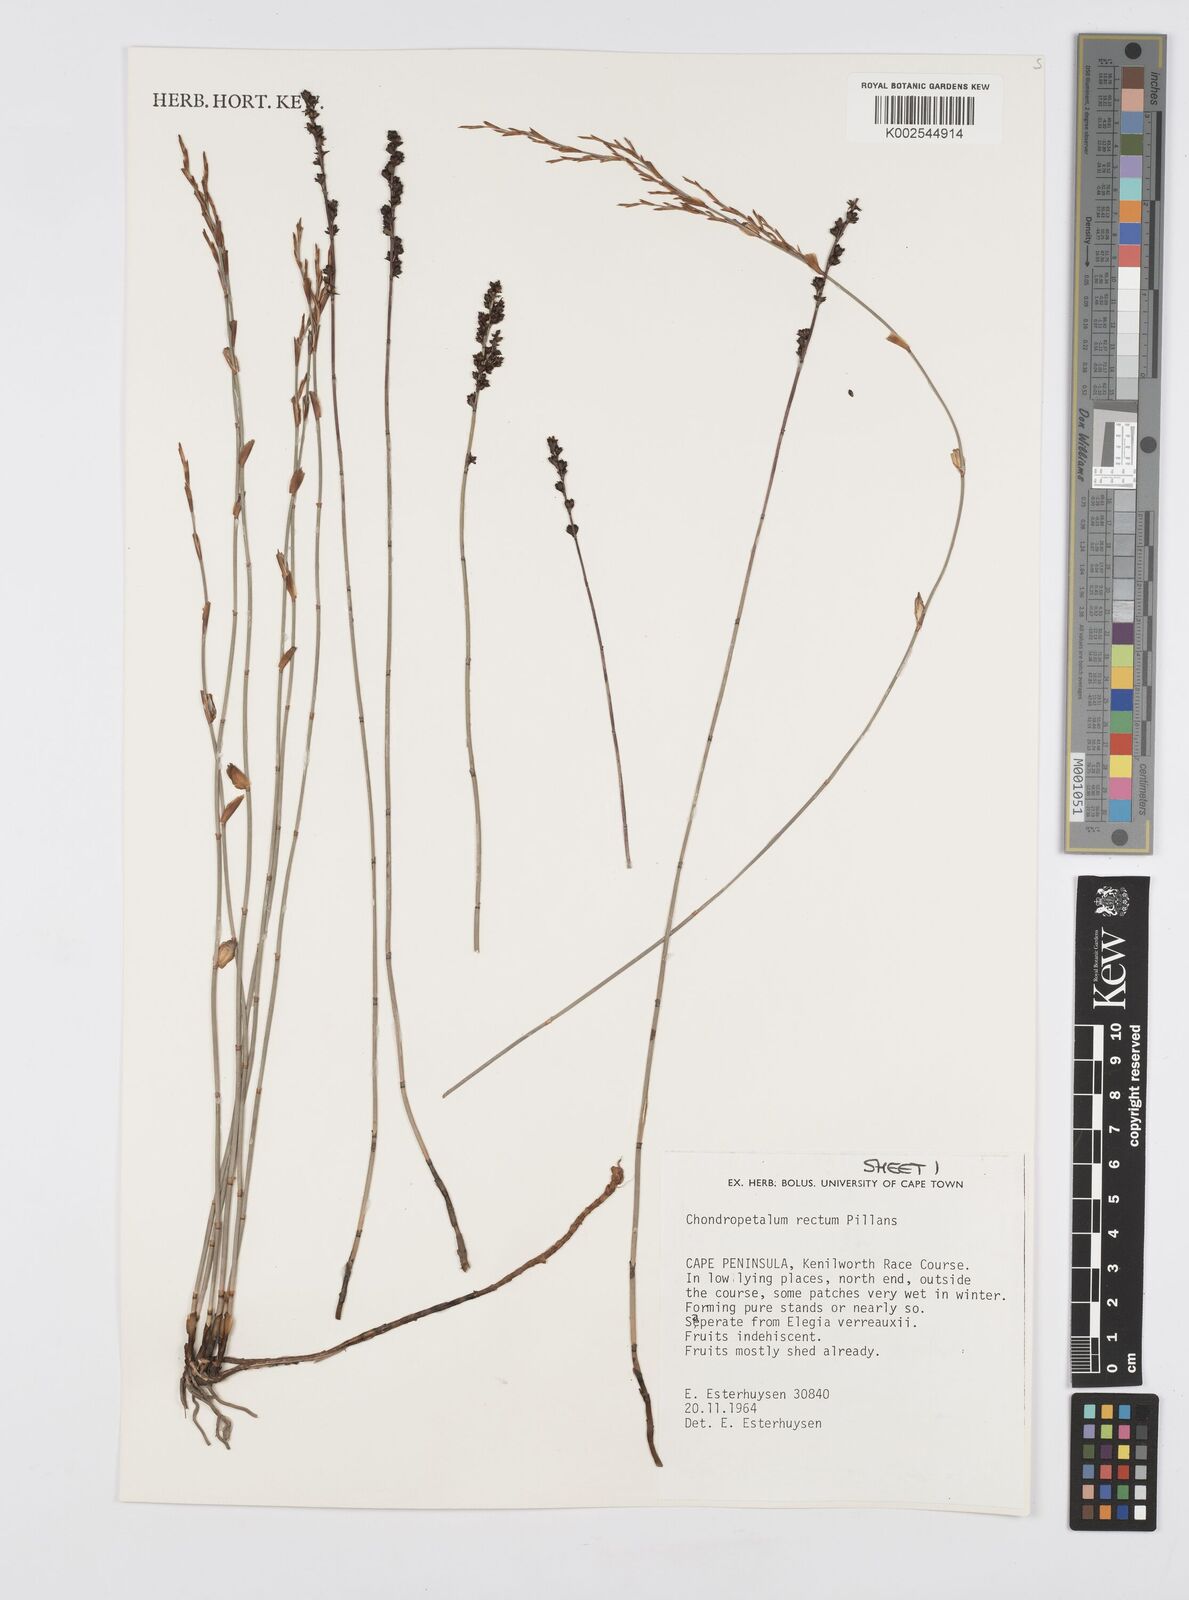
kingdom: Plantae
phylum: Tracheophyta
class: Liliopsida
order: Poales
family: Restionaceae
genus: Elegia
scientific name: Elegia recta
